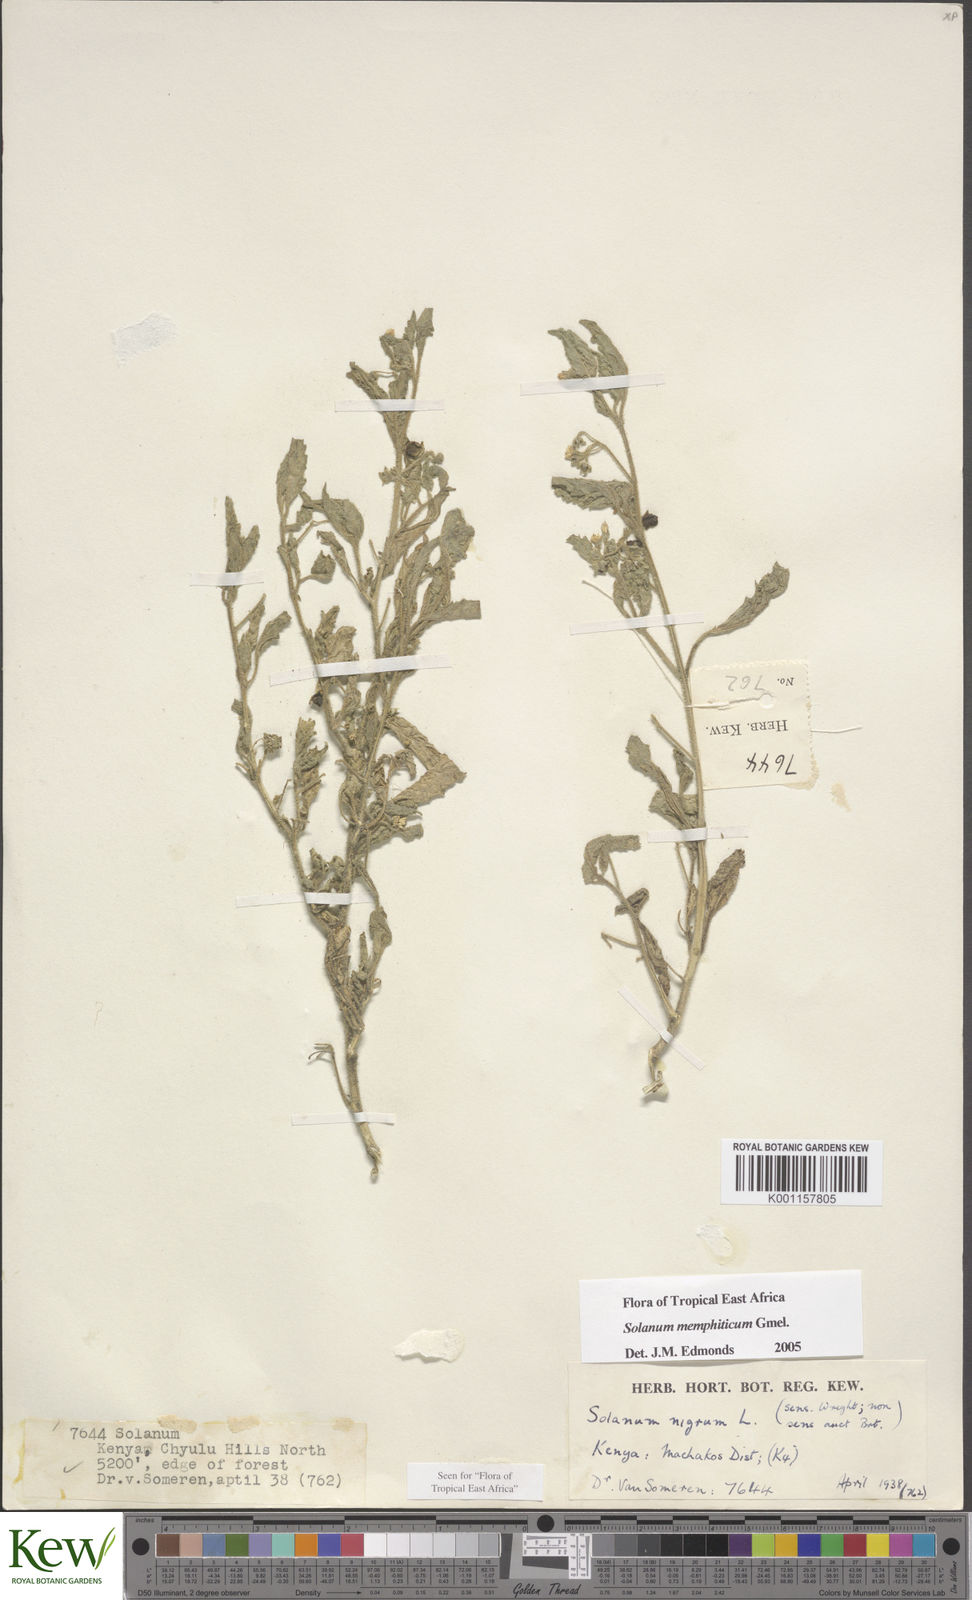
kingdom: Plantae
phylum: Tracheophyta
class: Magnoliopsida
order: Solanales
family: Solanaceae
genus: Solanum
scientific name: Solanum memphiticum
